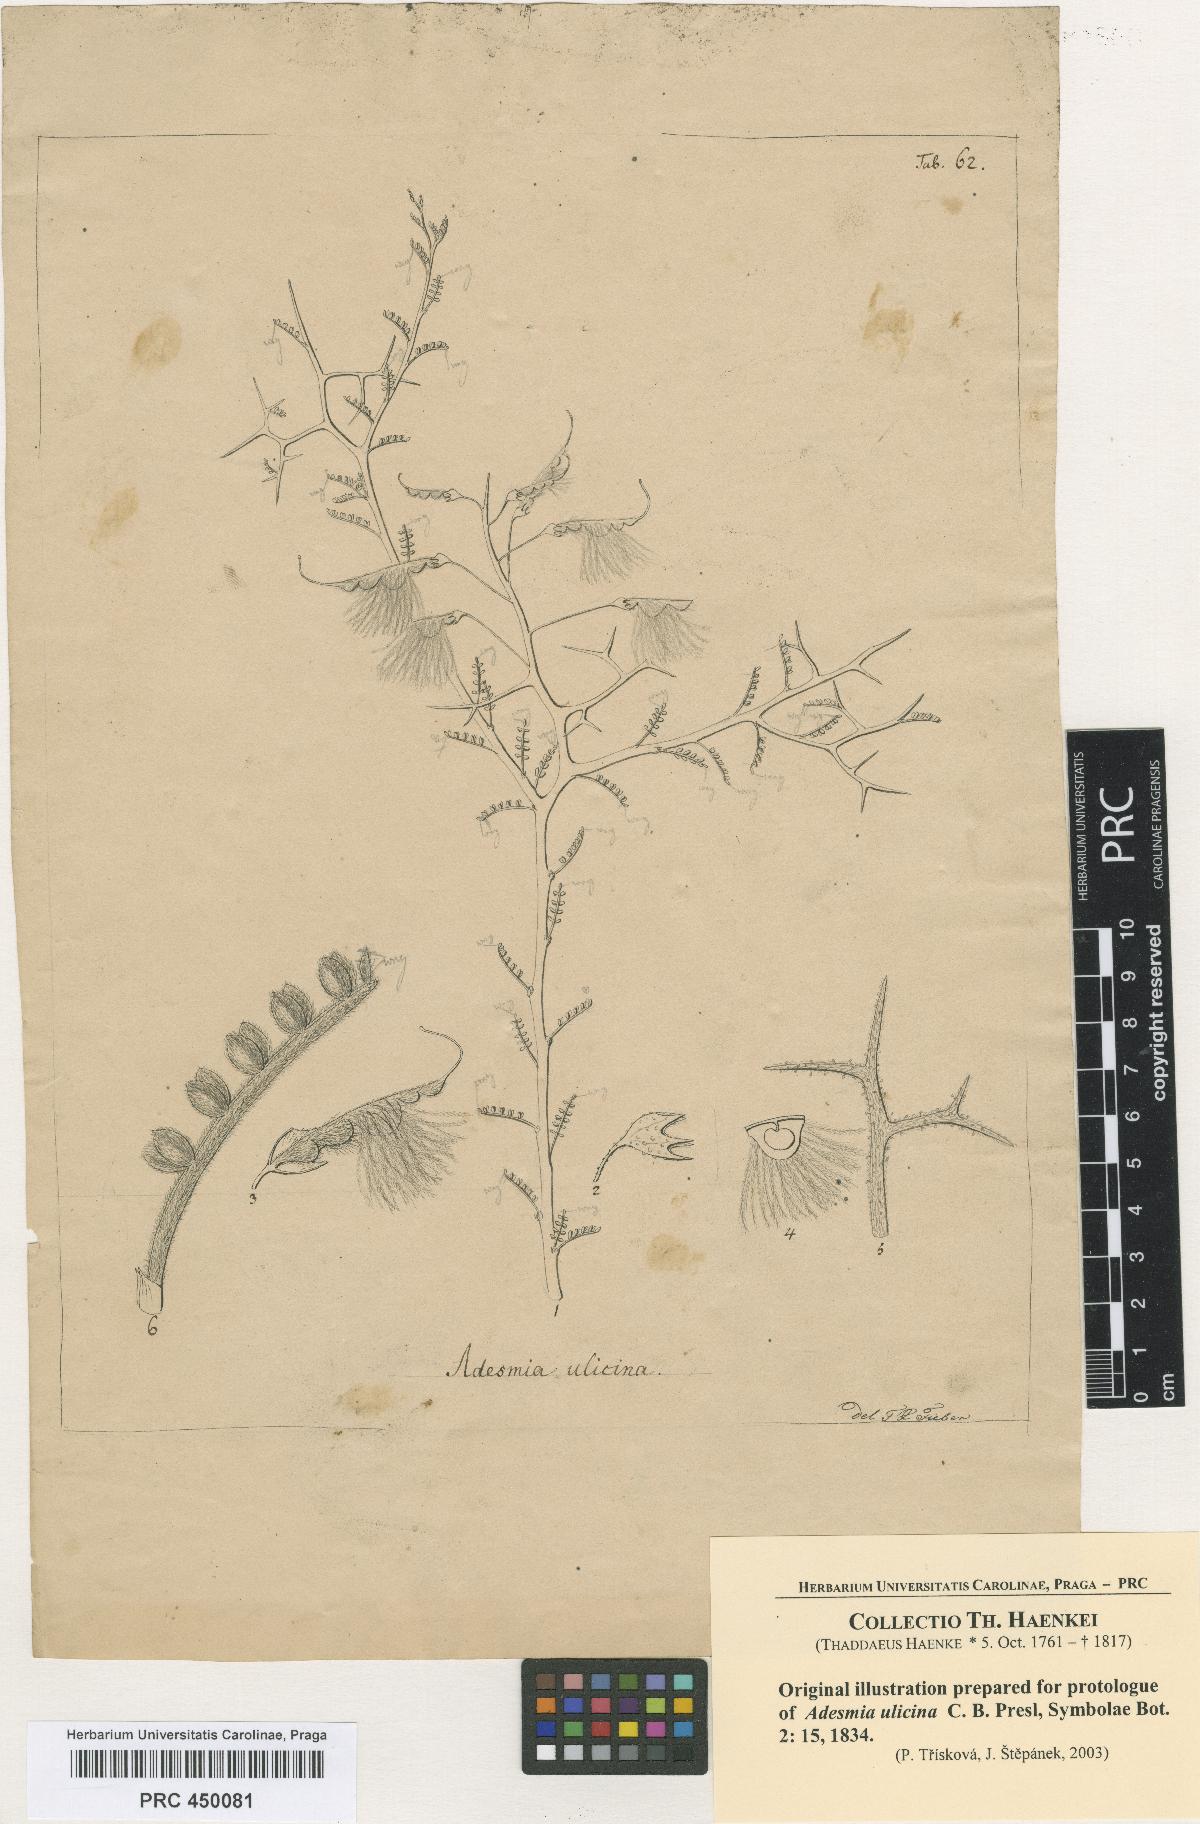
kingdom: Plantae
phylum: Tracheophyta
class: Magnoliopsida
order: Fabales
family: Fabaceae
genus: Adesmia
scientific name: Adesmia pedicellata
